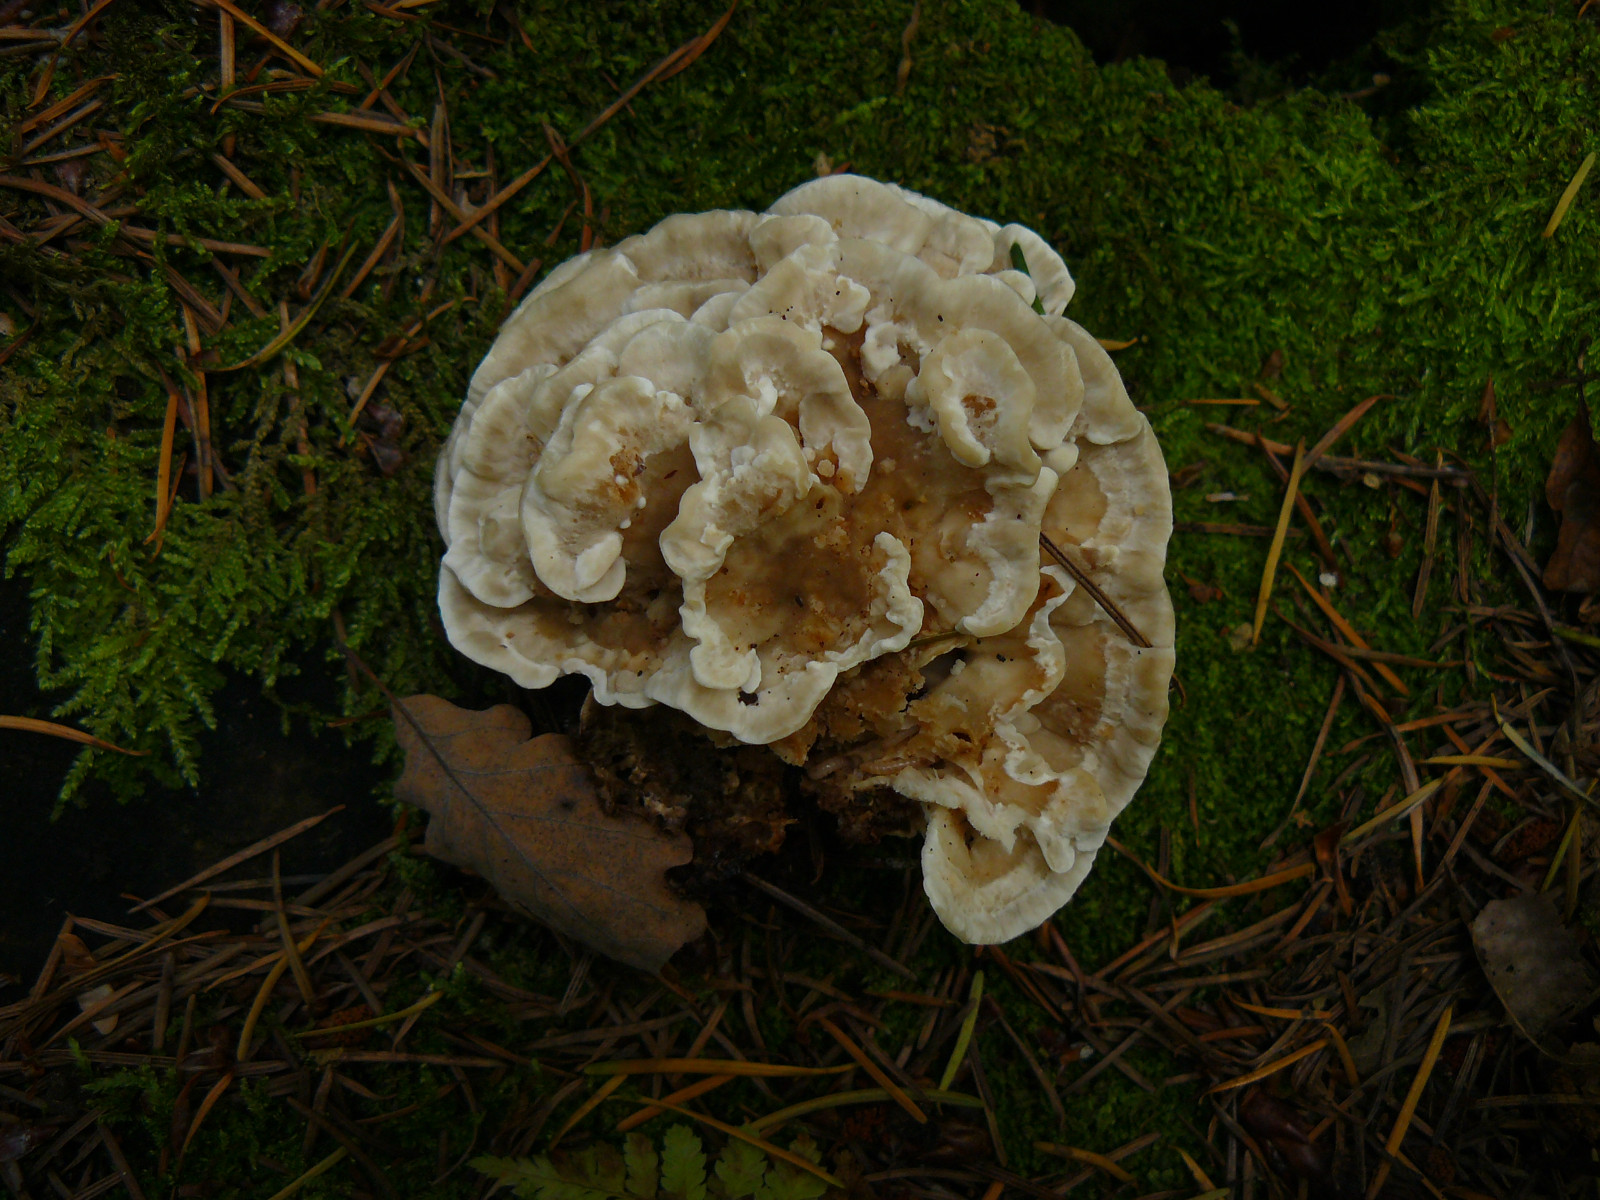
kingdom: Fungi
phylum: Basidiomycota
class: Agaricomycetes
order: Polyporales
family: Polyporaceae
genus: Trametes
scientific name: Trametes versicolor
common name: broget læderporesvamp
